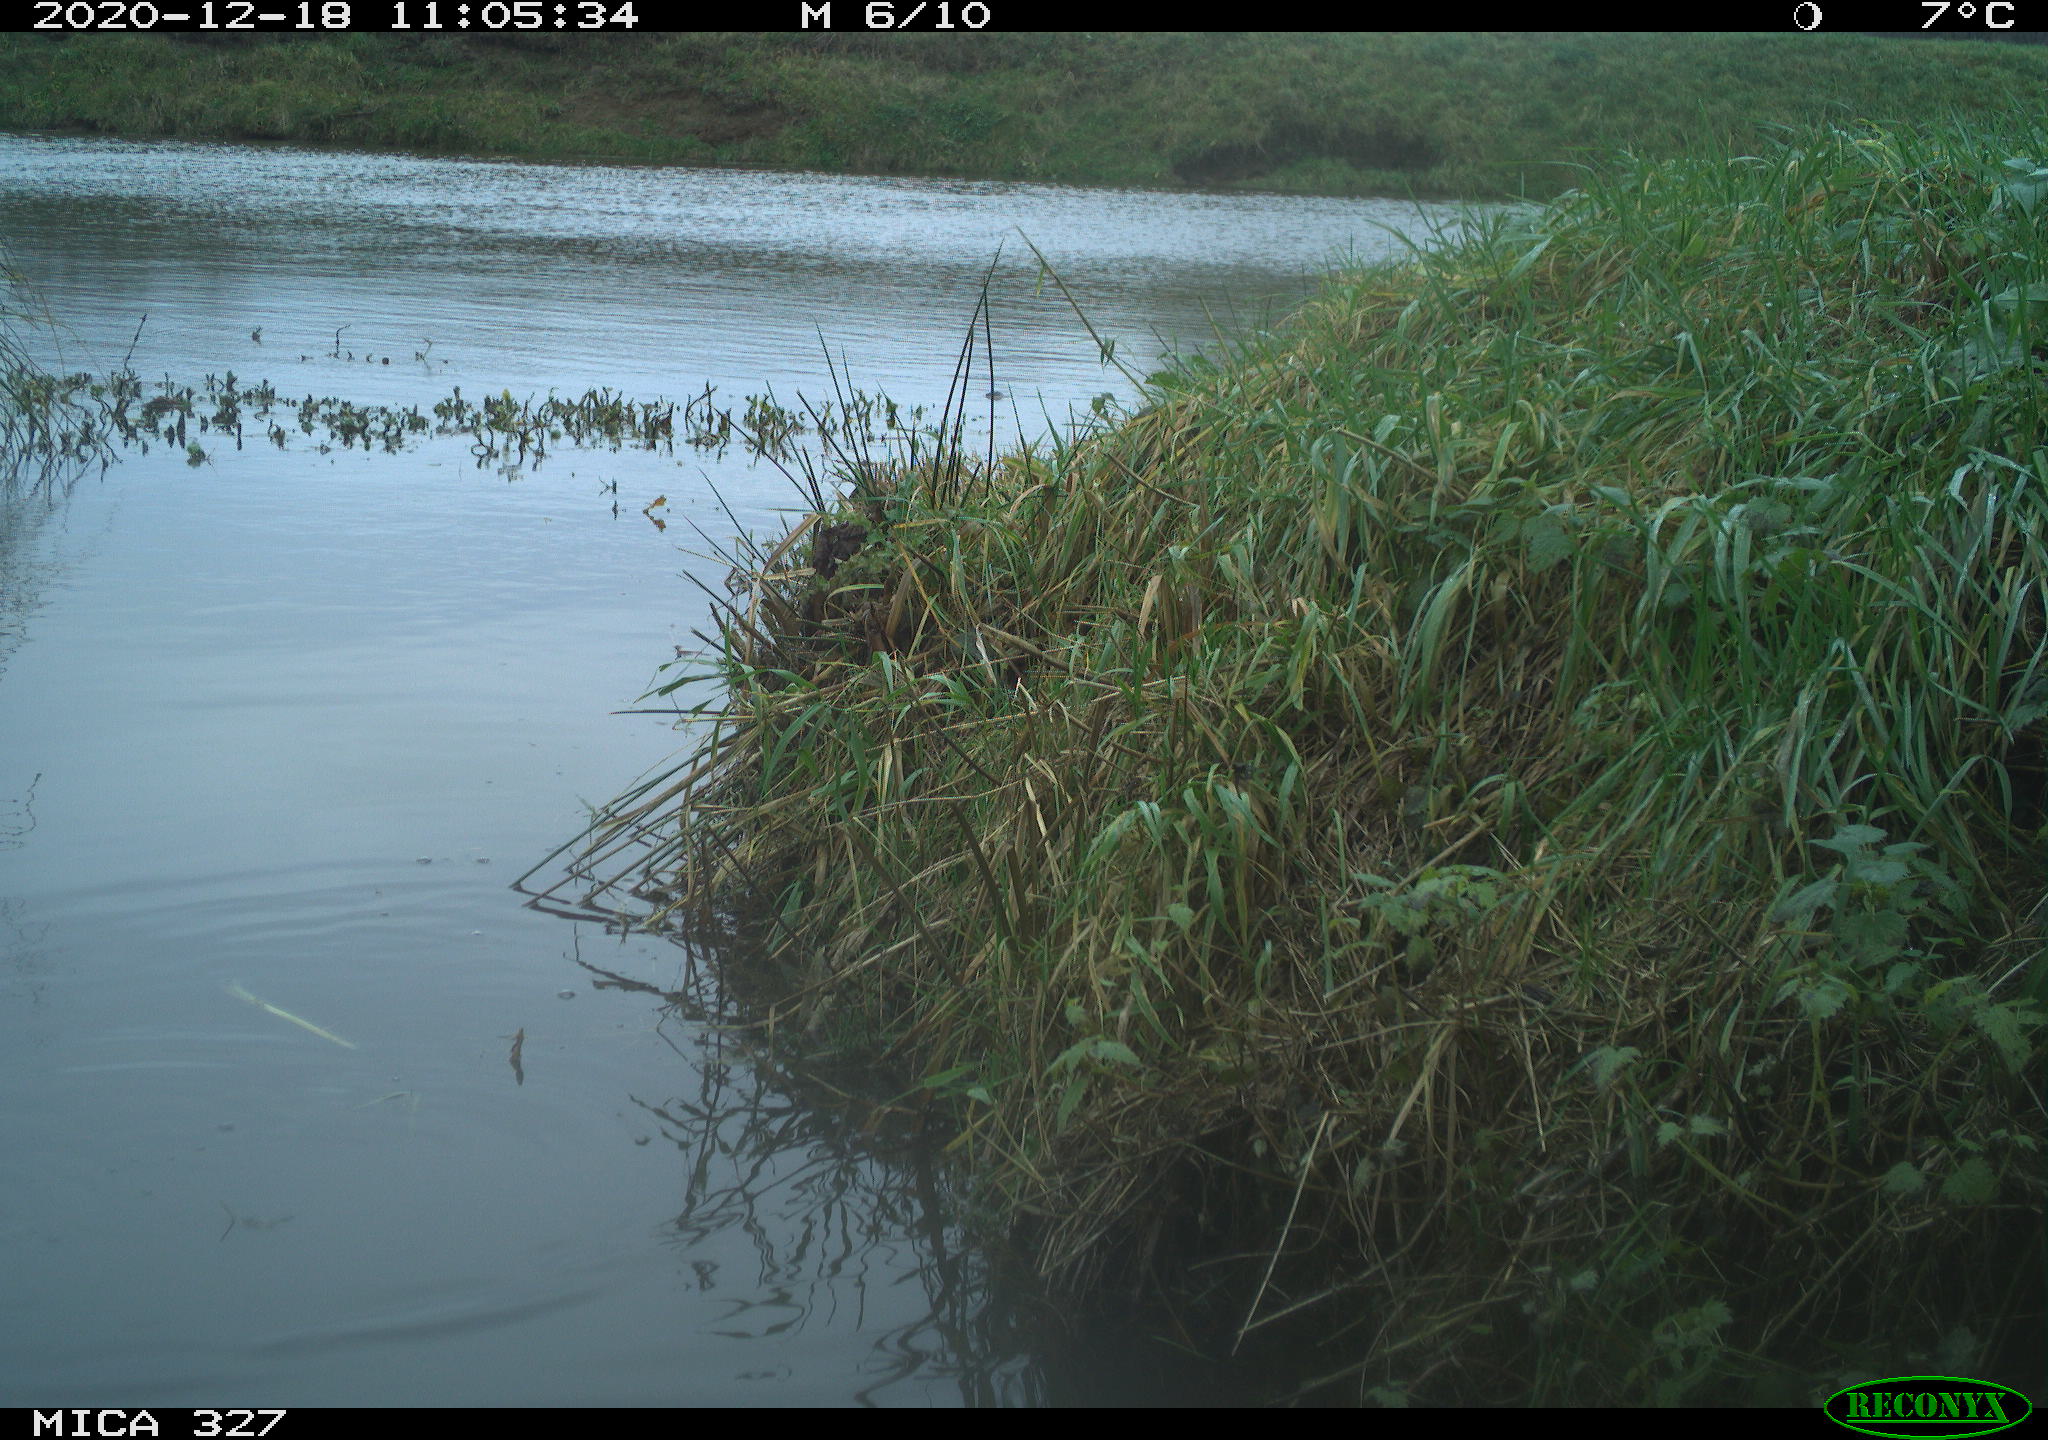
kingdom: Animalia
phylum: Chordata
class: Aves
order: Pelecaniformes
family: Ardeidae
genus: Ardea
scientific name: Ardea alba
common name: Great egret
